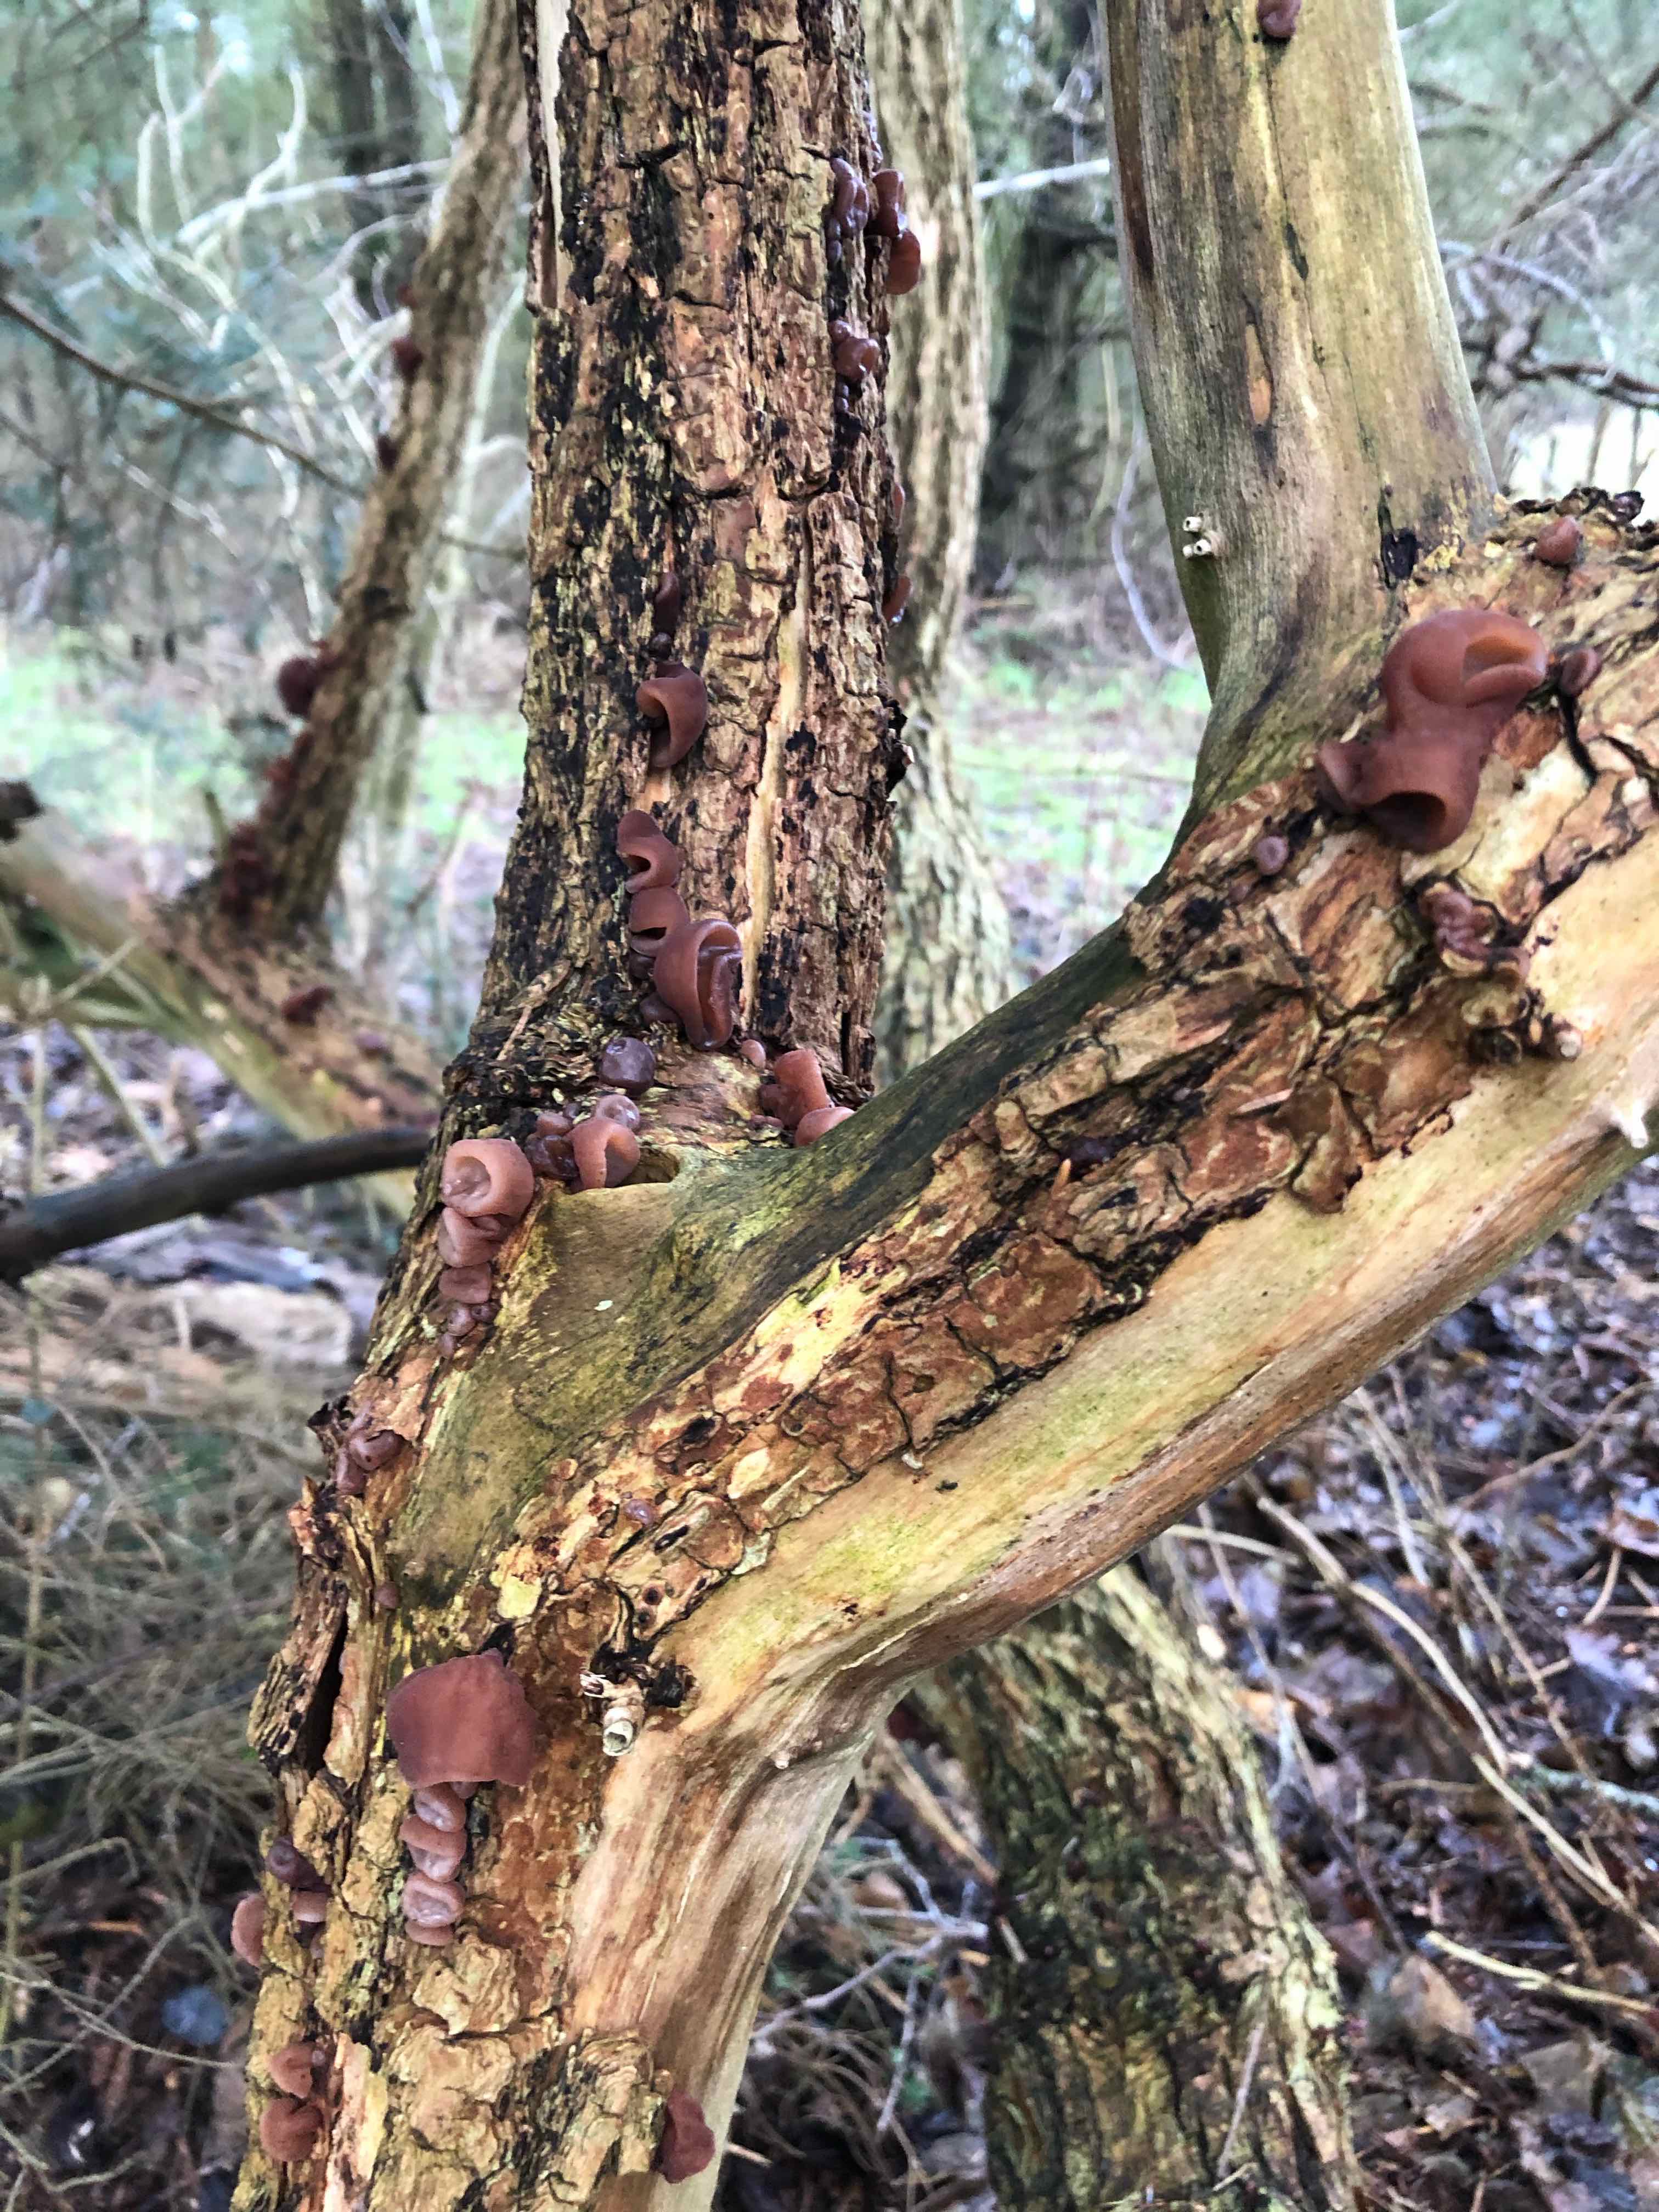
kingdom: Fungi
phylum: Basidiomycota
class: Agaricomycetes
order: Auriculariales
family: Auriculariaceae
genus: Auricularia
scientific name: Auricularia auricula-judae
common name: almindelig judasøre
